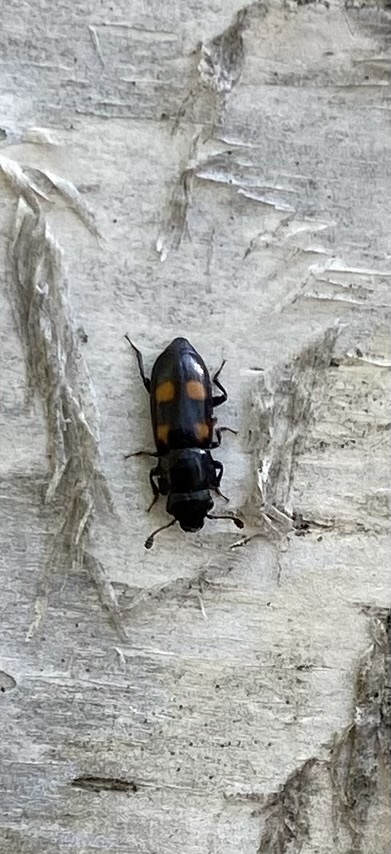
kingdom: Animalia
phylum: Arthropoda
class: Insecta
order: Coleoptera
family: Nitidulidae
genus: Glischrochilus
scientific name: Glischrochilus hortensis
